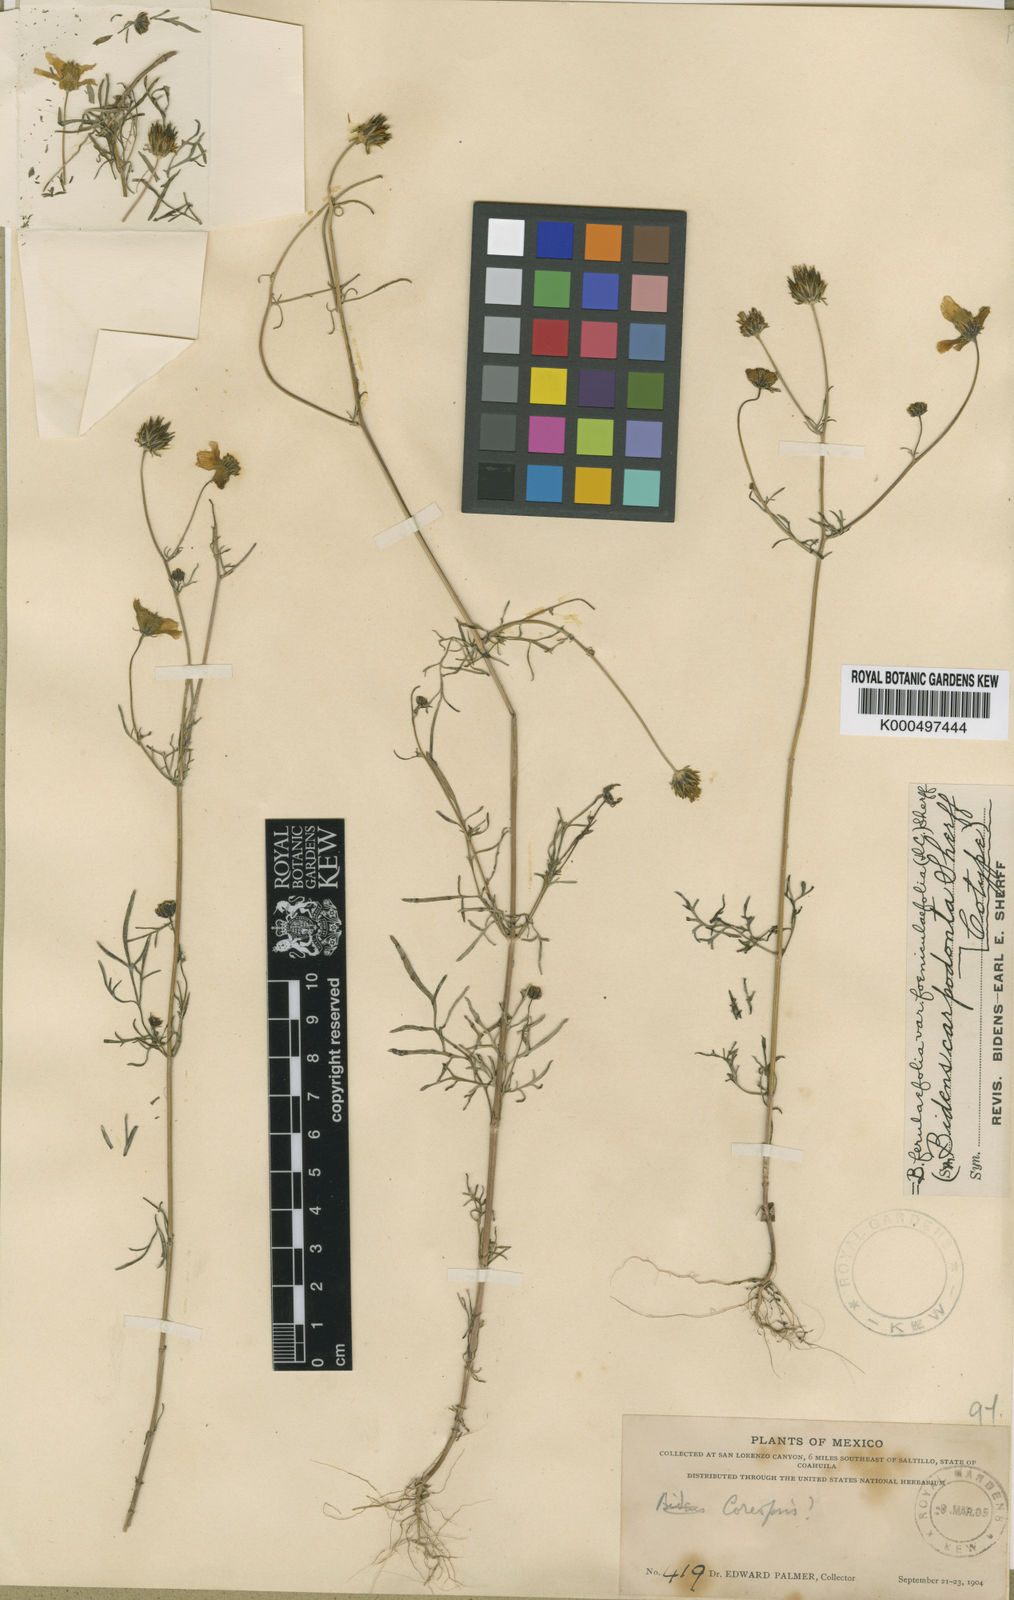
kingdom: Plantae
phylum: Tracheophyta
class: Magnoliopsida
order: Asterales
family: Asteraceae
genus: Bidens
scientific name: Bidens aurea
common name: Arizona beggar-ticks
